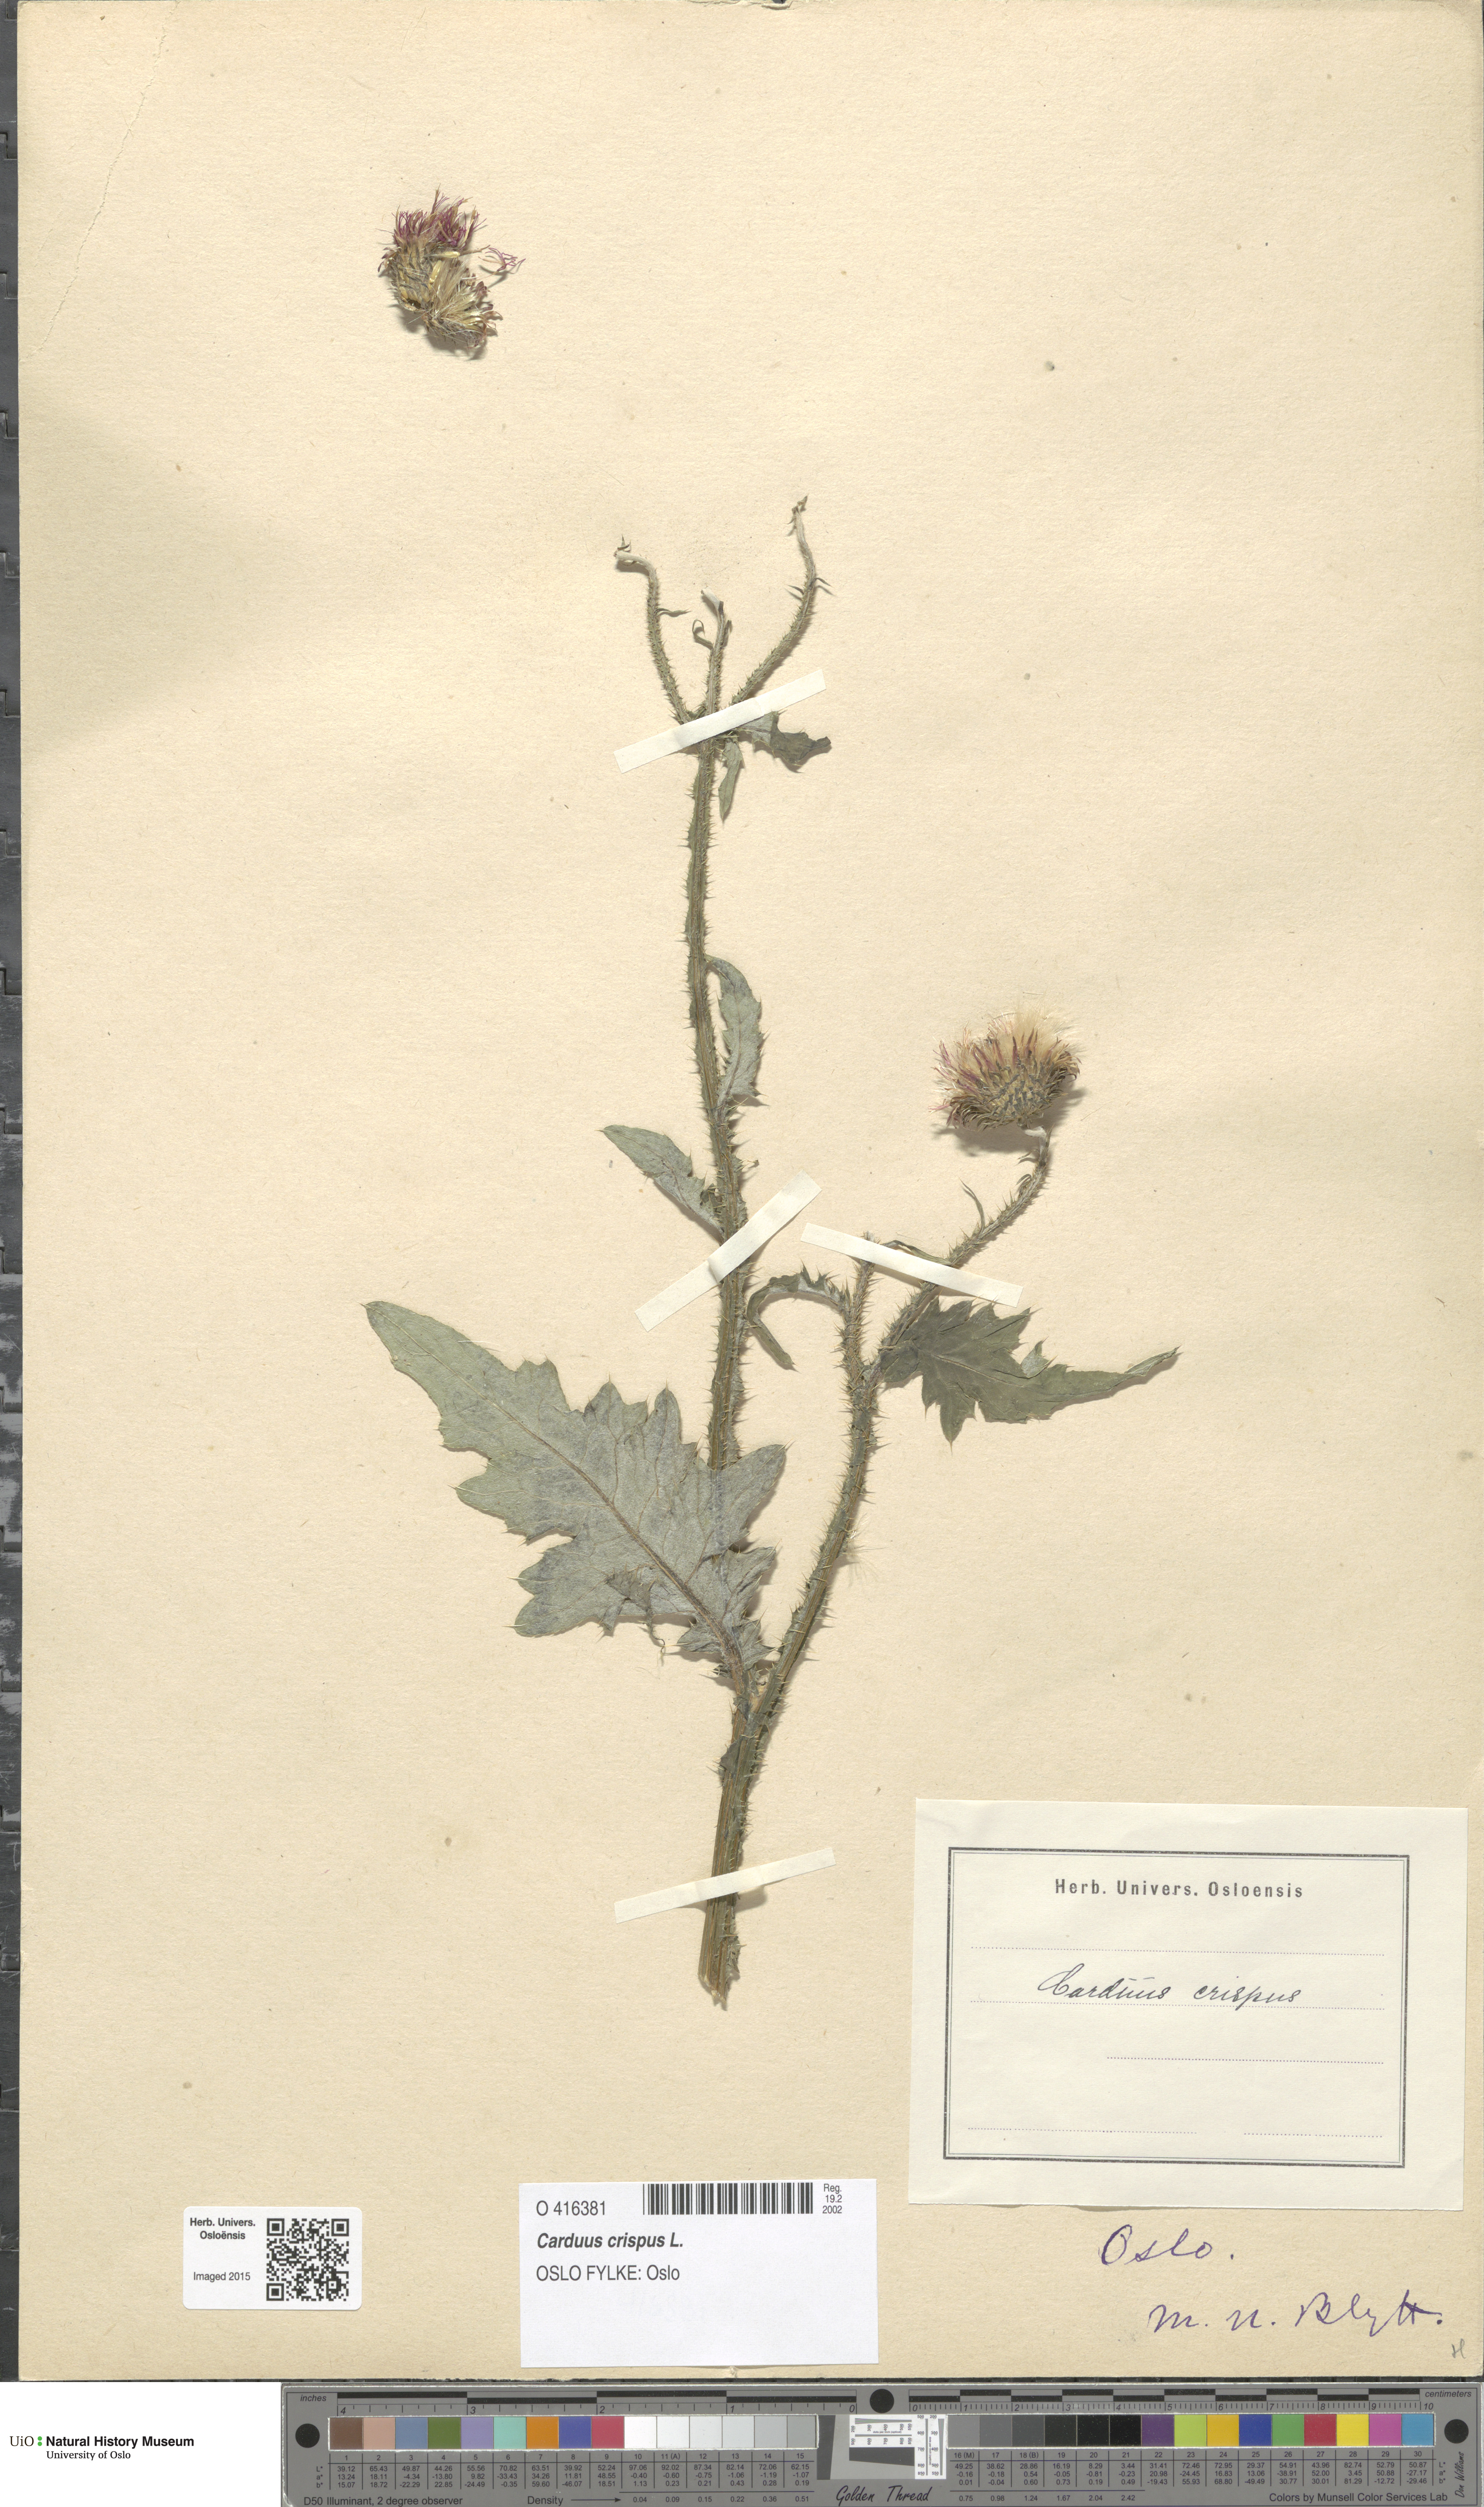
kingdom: Plantae
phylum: Tracheophyta
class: Magnoliopsida
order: Asterales
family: Asteraceae
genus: Carduus
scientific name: Carduus crispus
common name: Welted thistle
